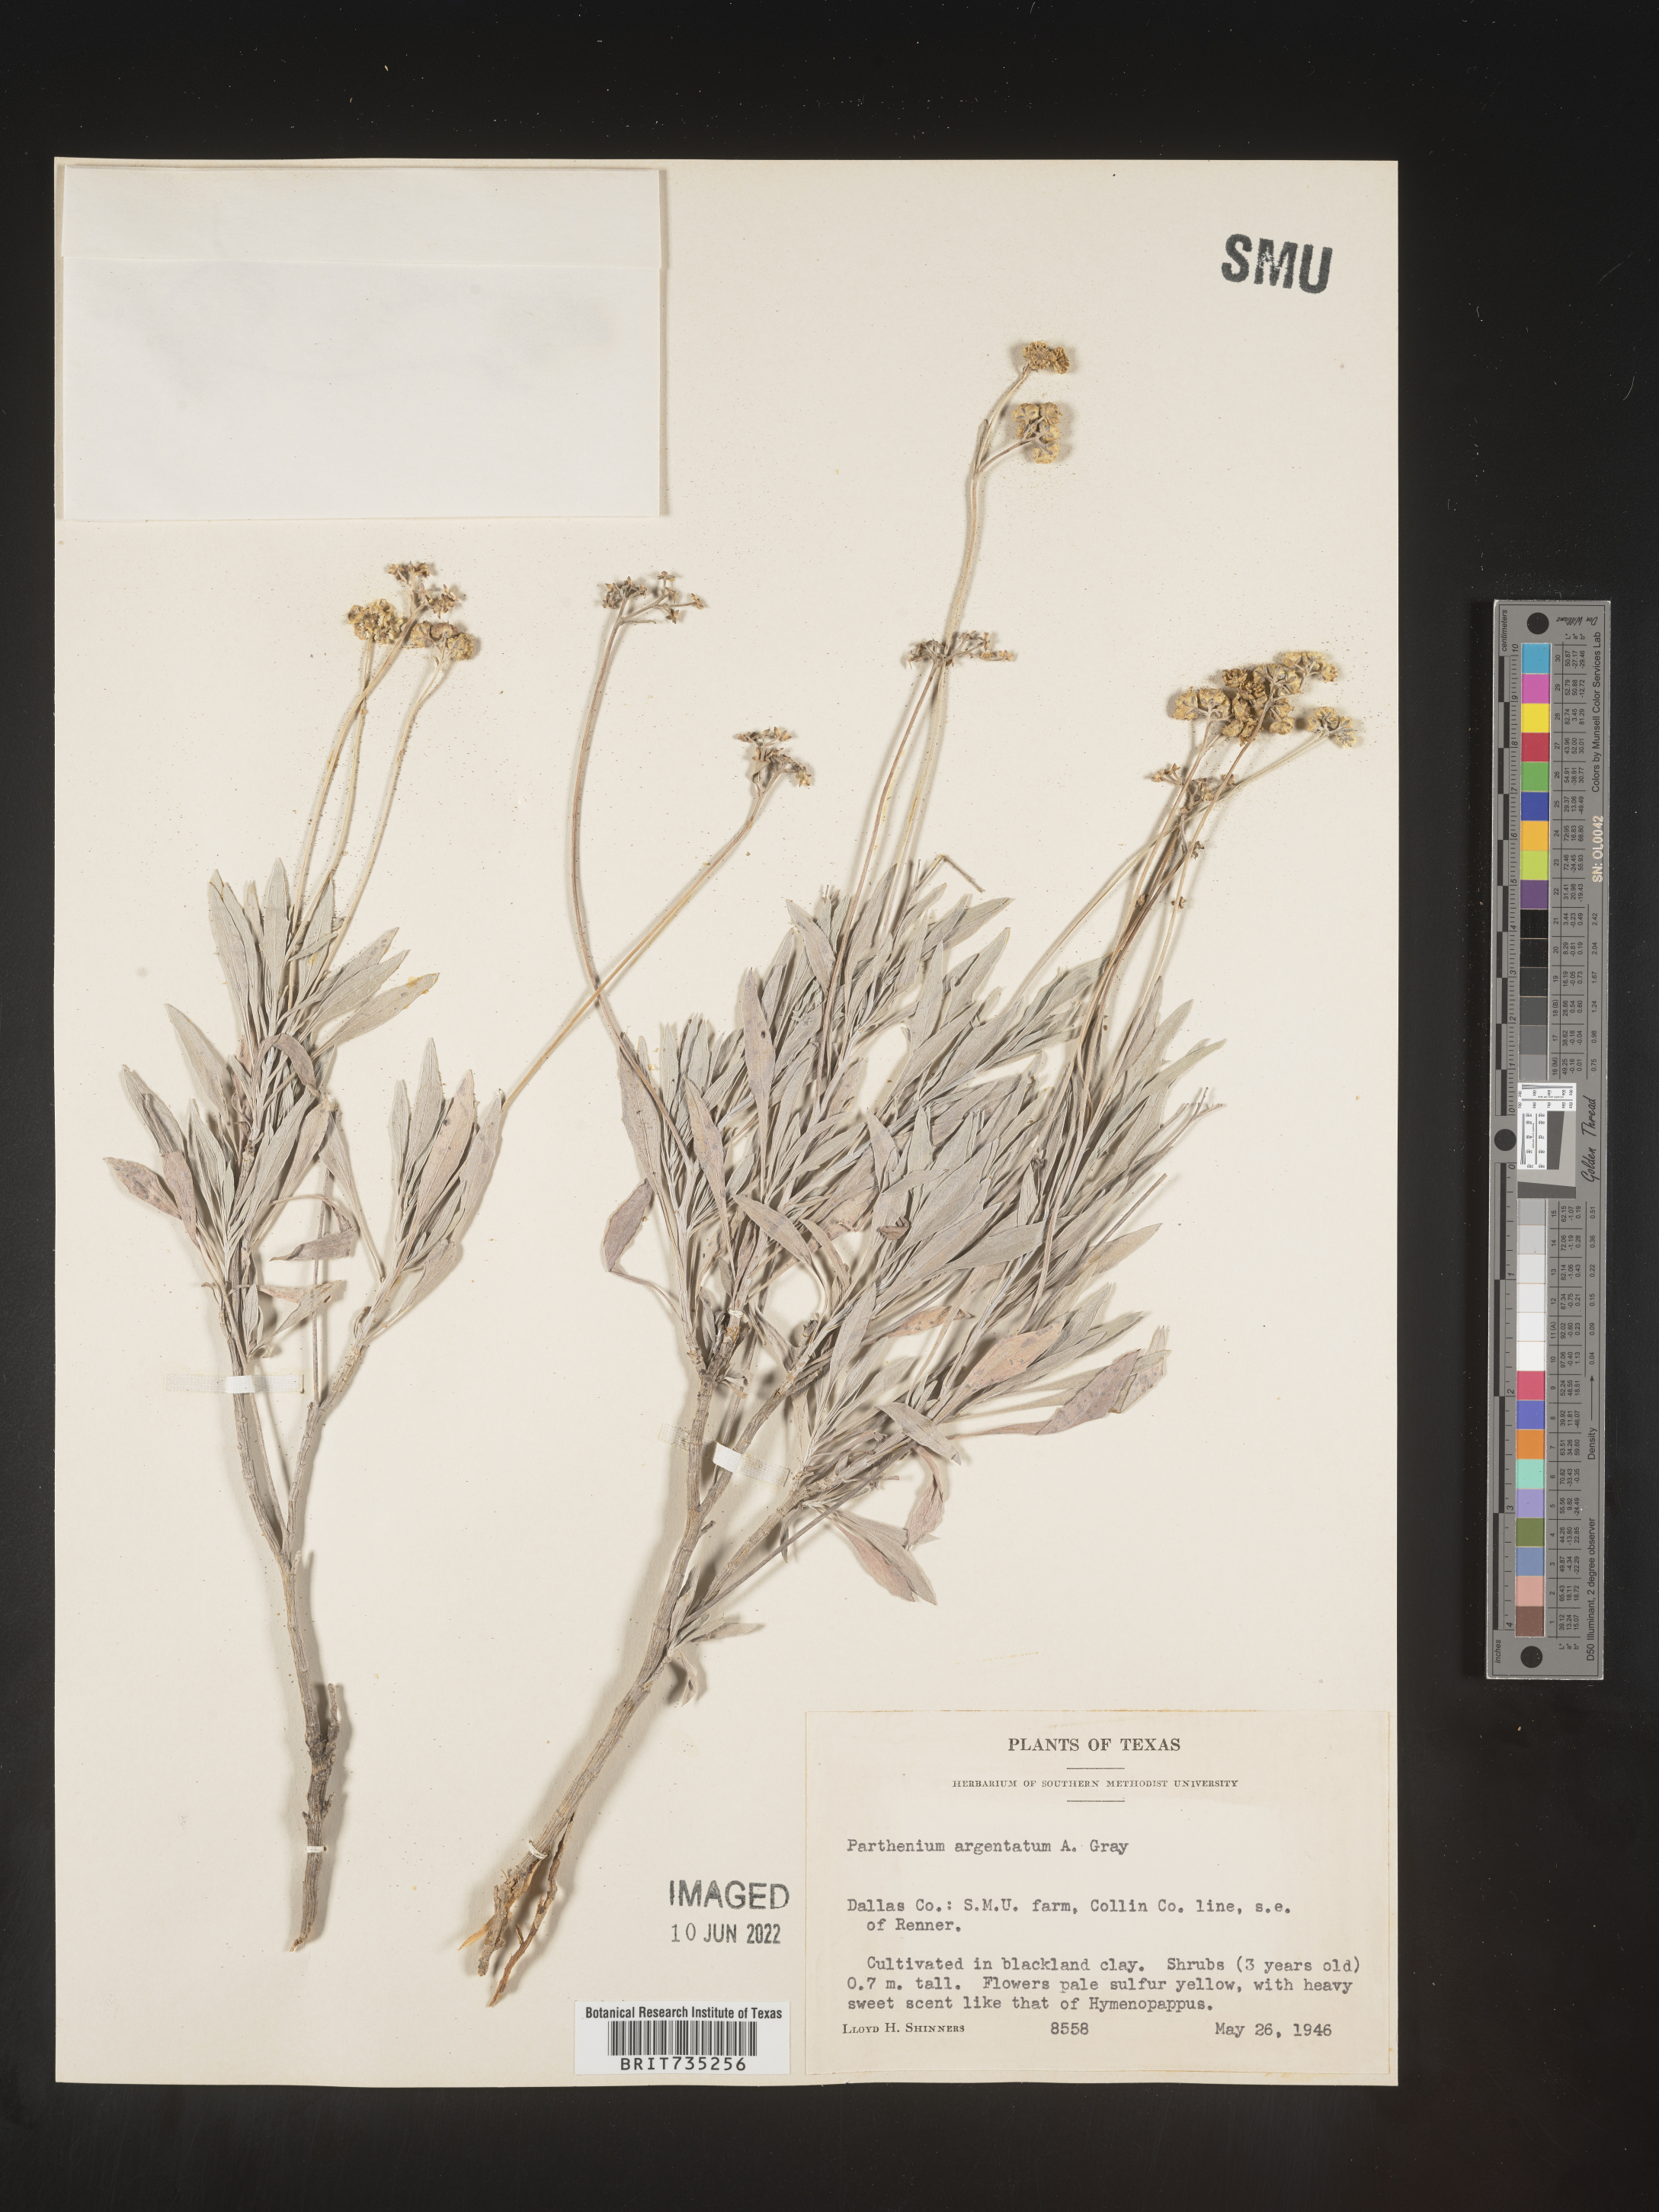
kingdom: Plantae
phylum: Tracheophyta
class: Magnoliopsida
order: Asterales
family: Asteraceae
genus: Parthenium
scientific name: Parthenium
